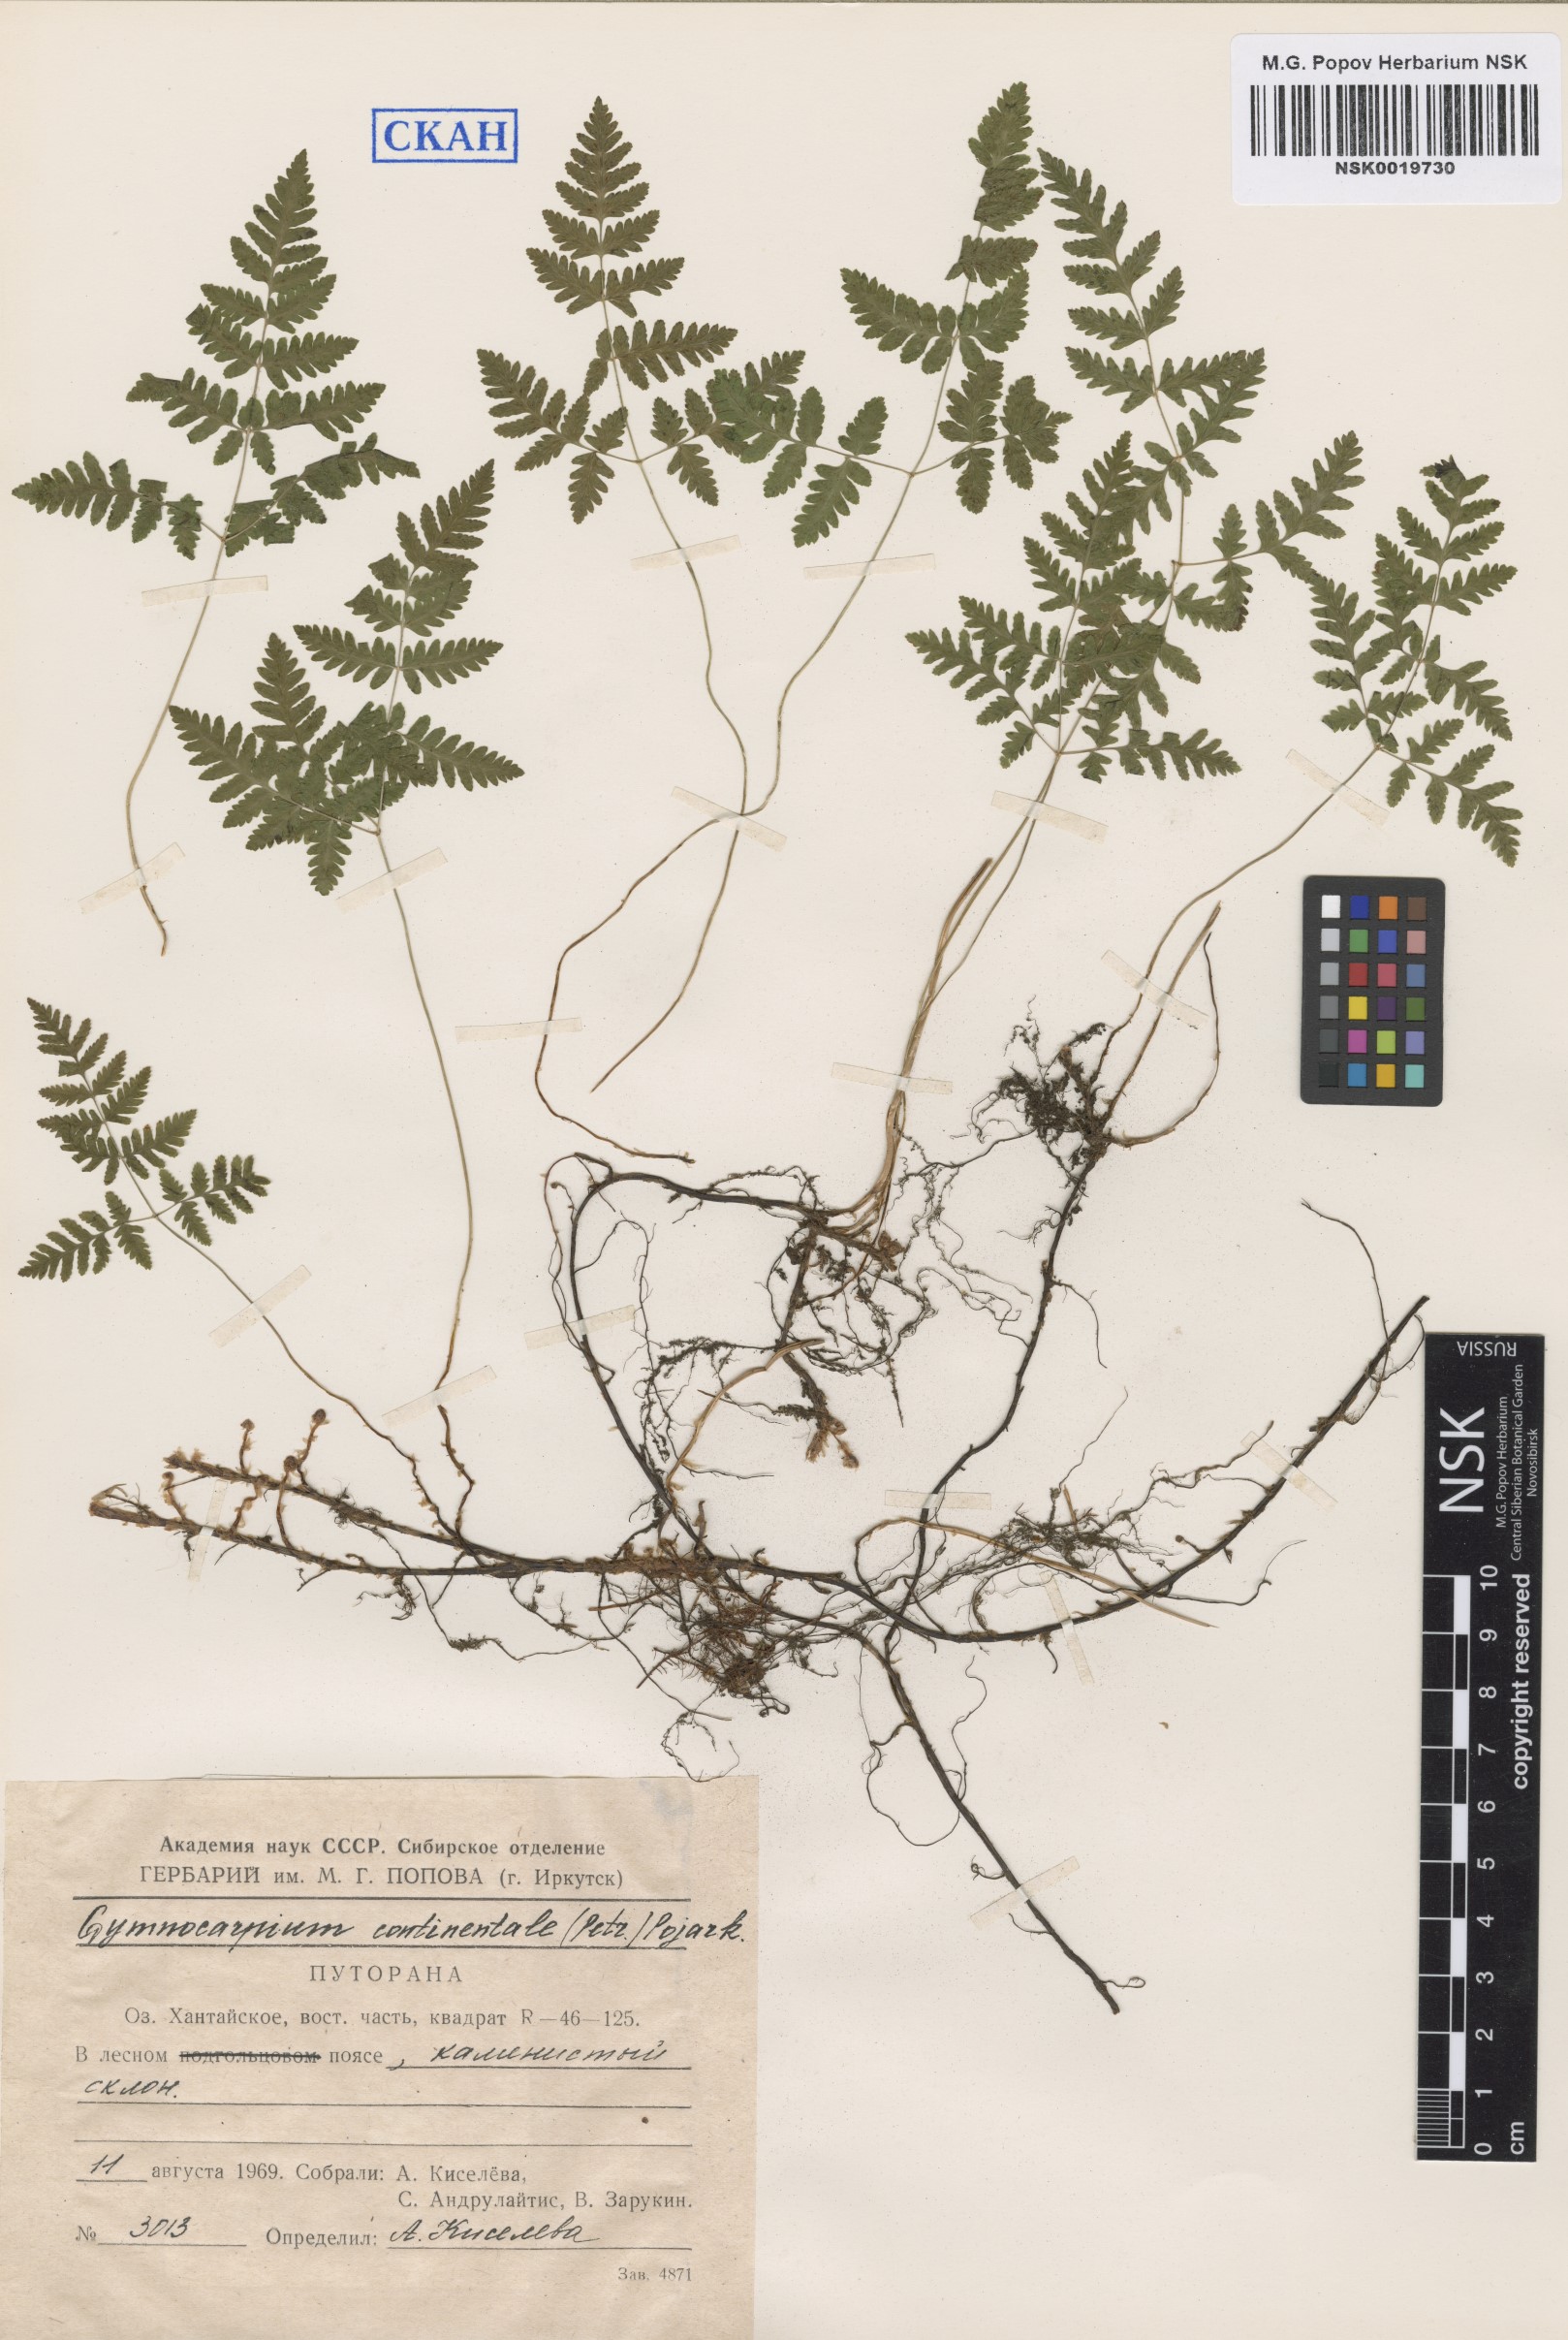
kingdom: Plantae
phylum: Tracheophyta
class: Polypodiopsida
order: Polypodiales
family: Cystopteridaceae
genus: Gymnocarpium
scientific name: Gymnocarpium continentale
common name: Asian oak fern
